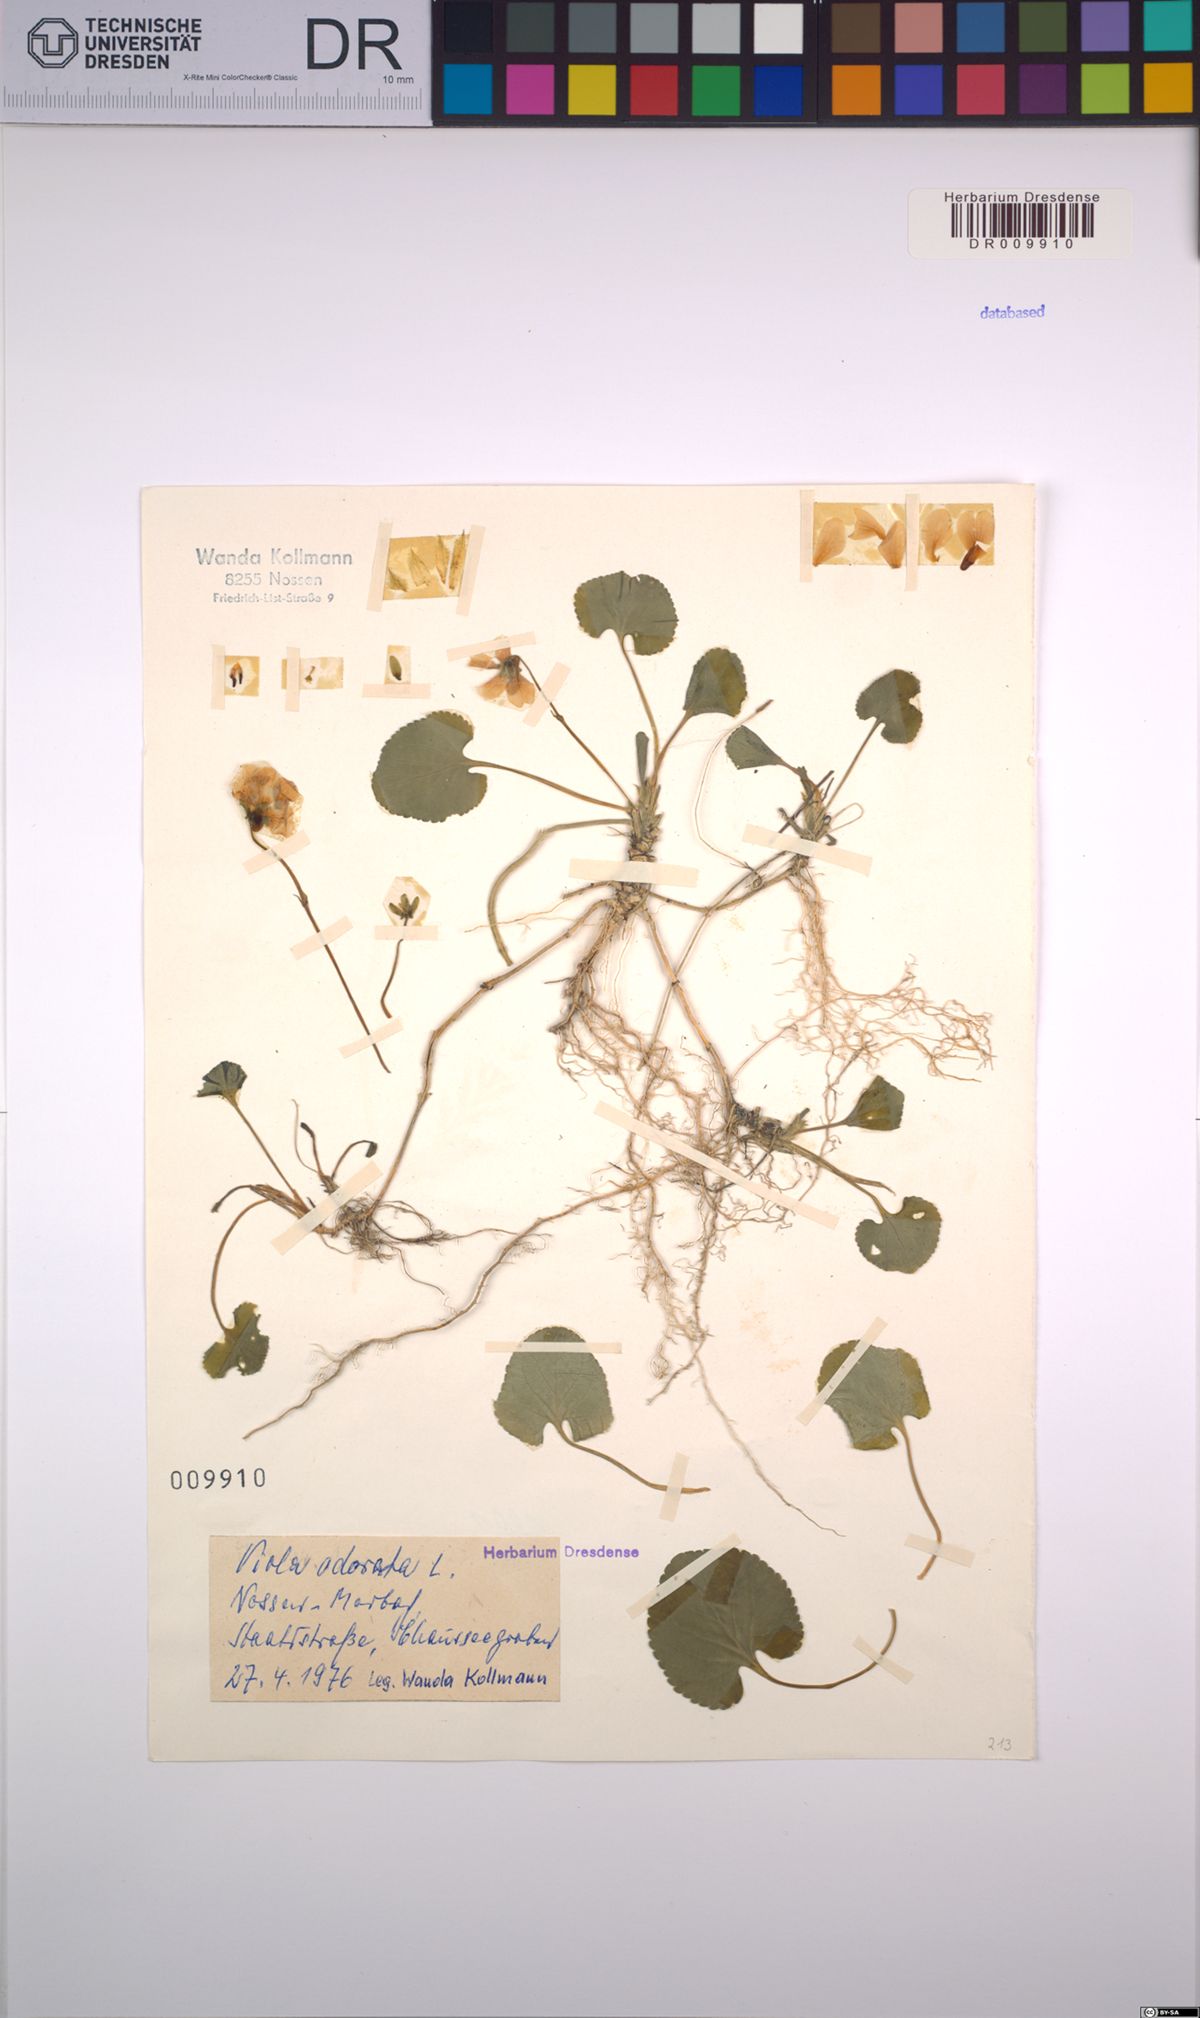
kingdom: Plantae
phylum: Tracheophyta
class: Magnoliopsida
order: Malpighiales
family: Violaceae
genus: Viola
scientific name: Viola odorata
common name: Sweet violet
